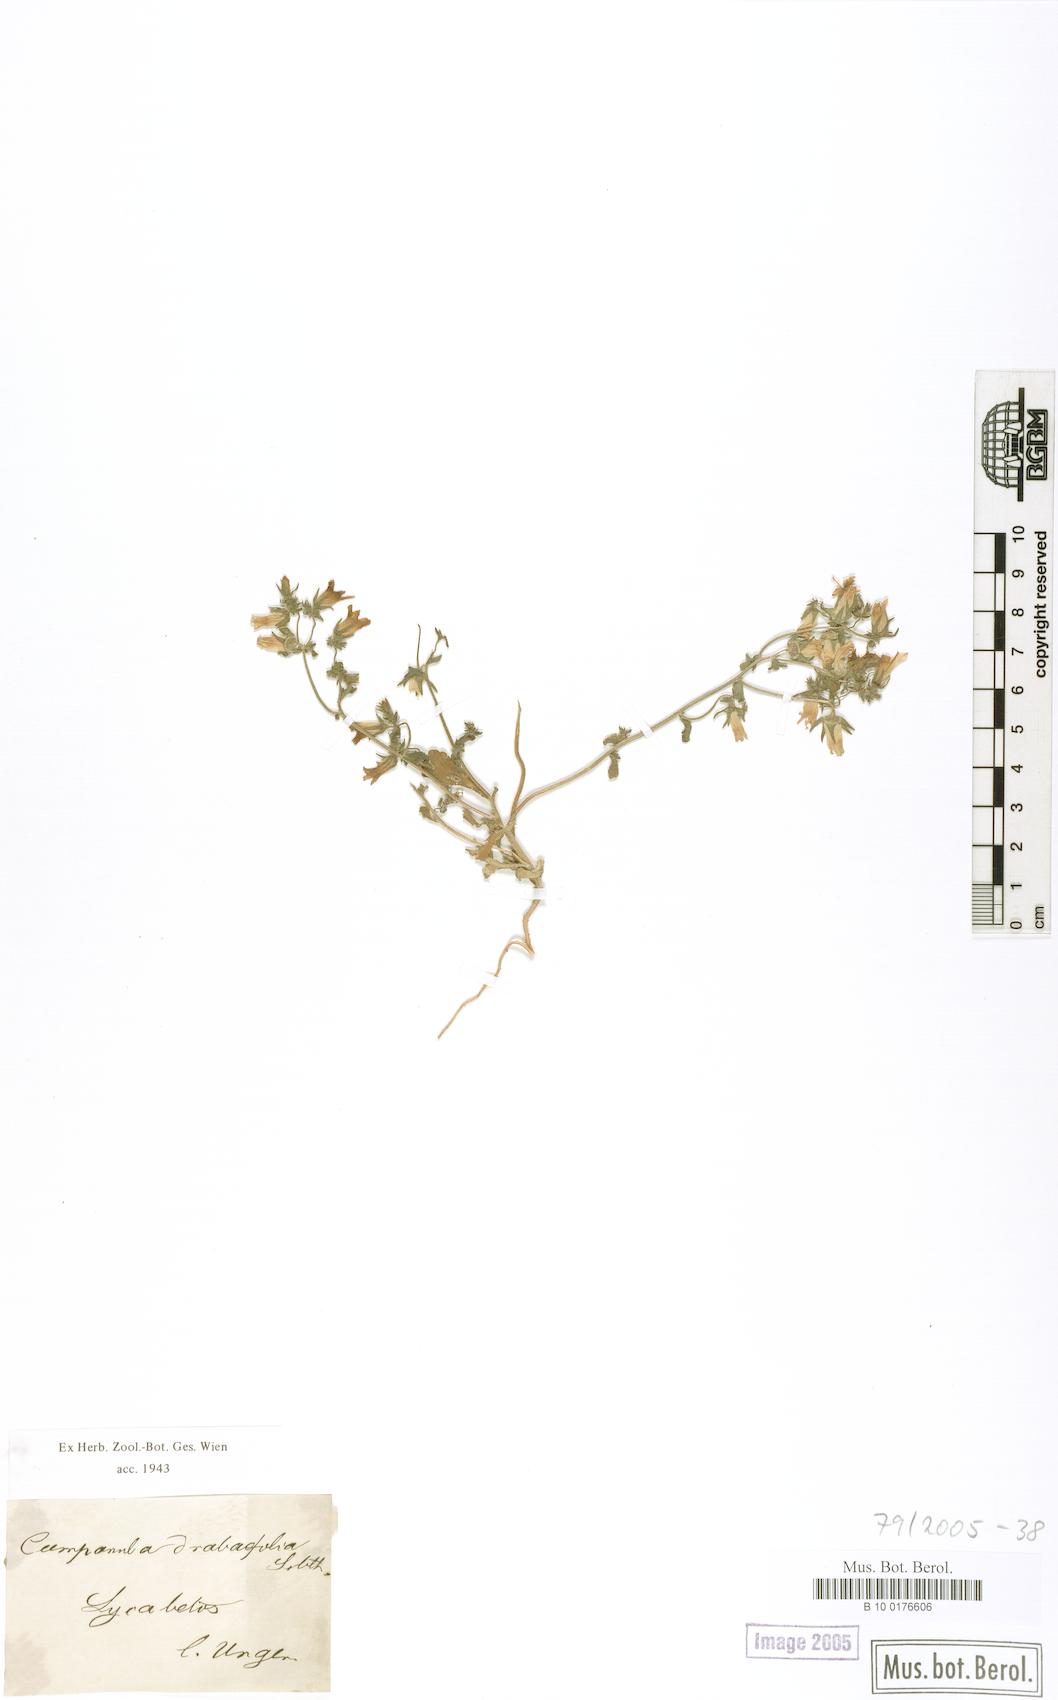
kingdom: Plantae
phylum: Tracheophyta
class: Magnoliopsida
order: Asterales
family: Campanulaceae
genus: Campanula
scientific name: Campanula drabifolia
